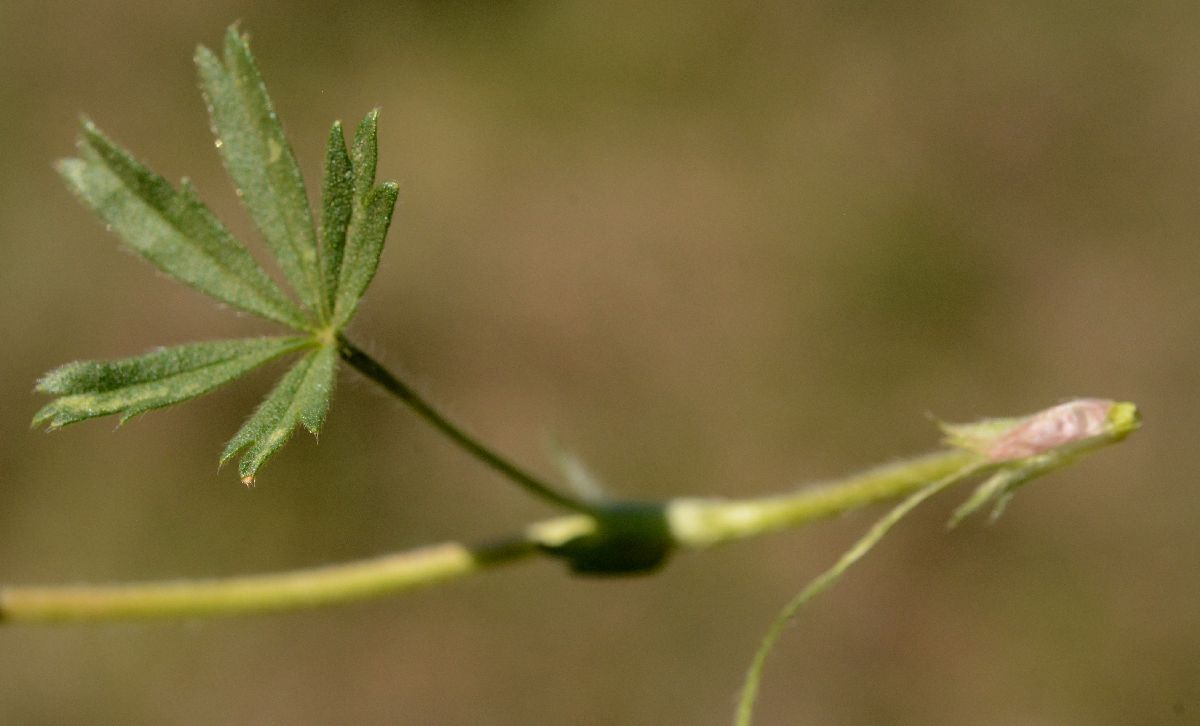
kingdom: Plantae
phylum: Tracheophyta
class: Magnoliopsida
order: Rosales
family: Rosaceae
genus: Potentilla
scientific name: Potentilla humifusa
